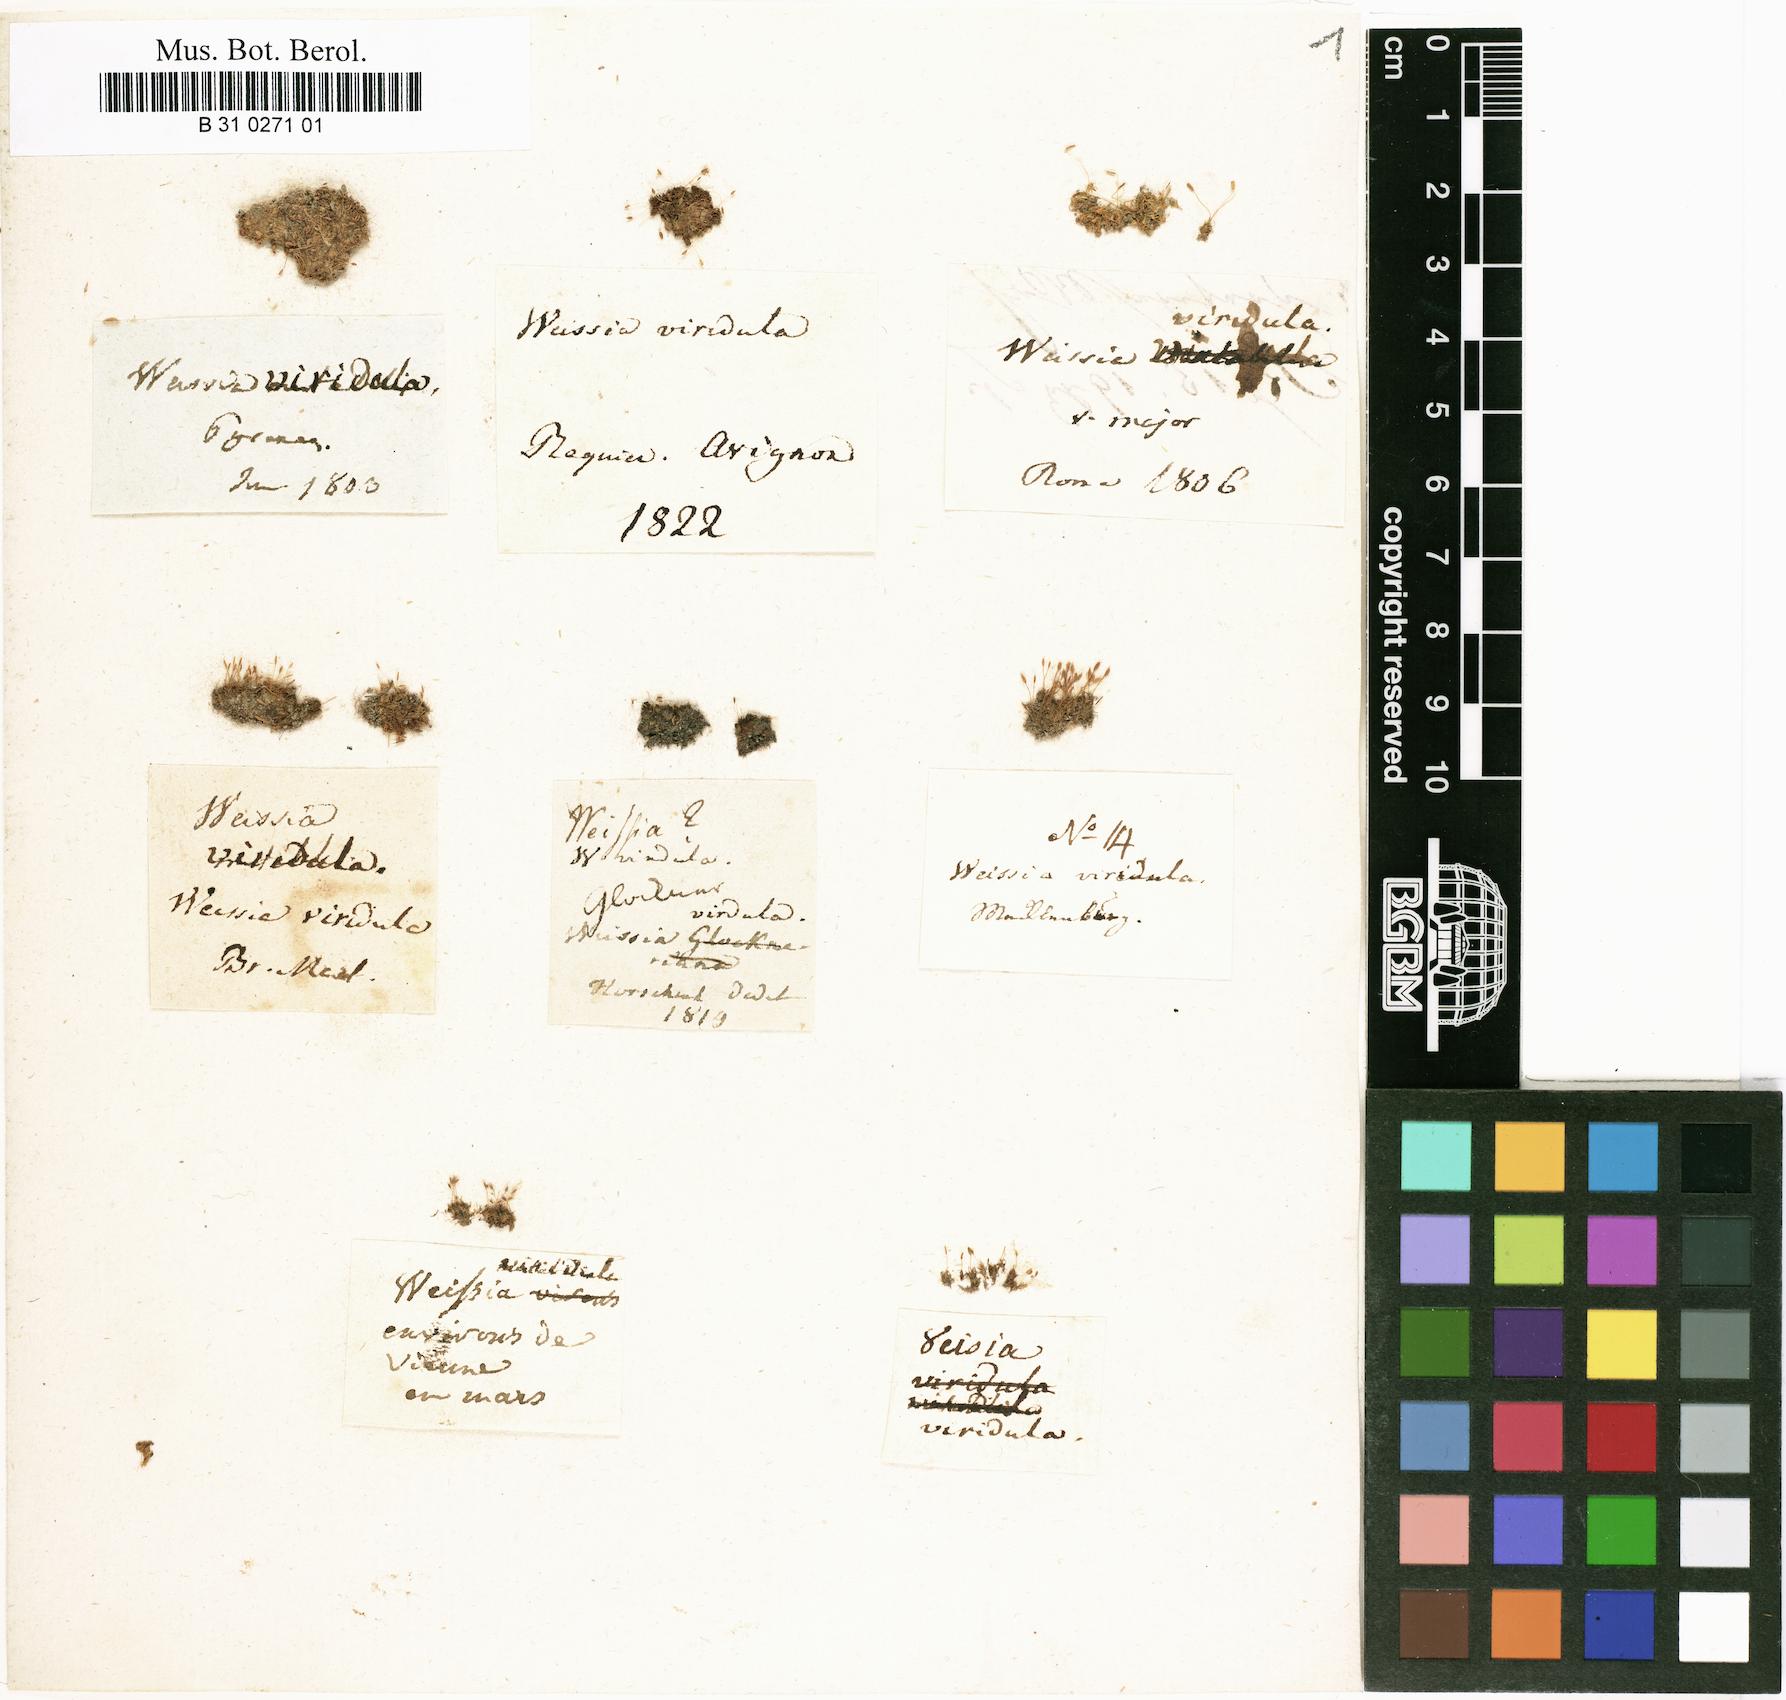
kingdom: Plantae
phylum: Bryophyta
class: Bryopsida
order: Pottiales
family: Pottiaceae
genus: Weissia
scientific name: Weissia controversa
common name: Green-tufted stubble moss
